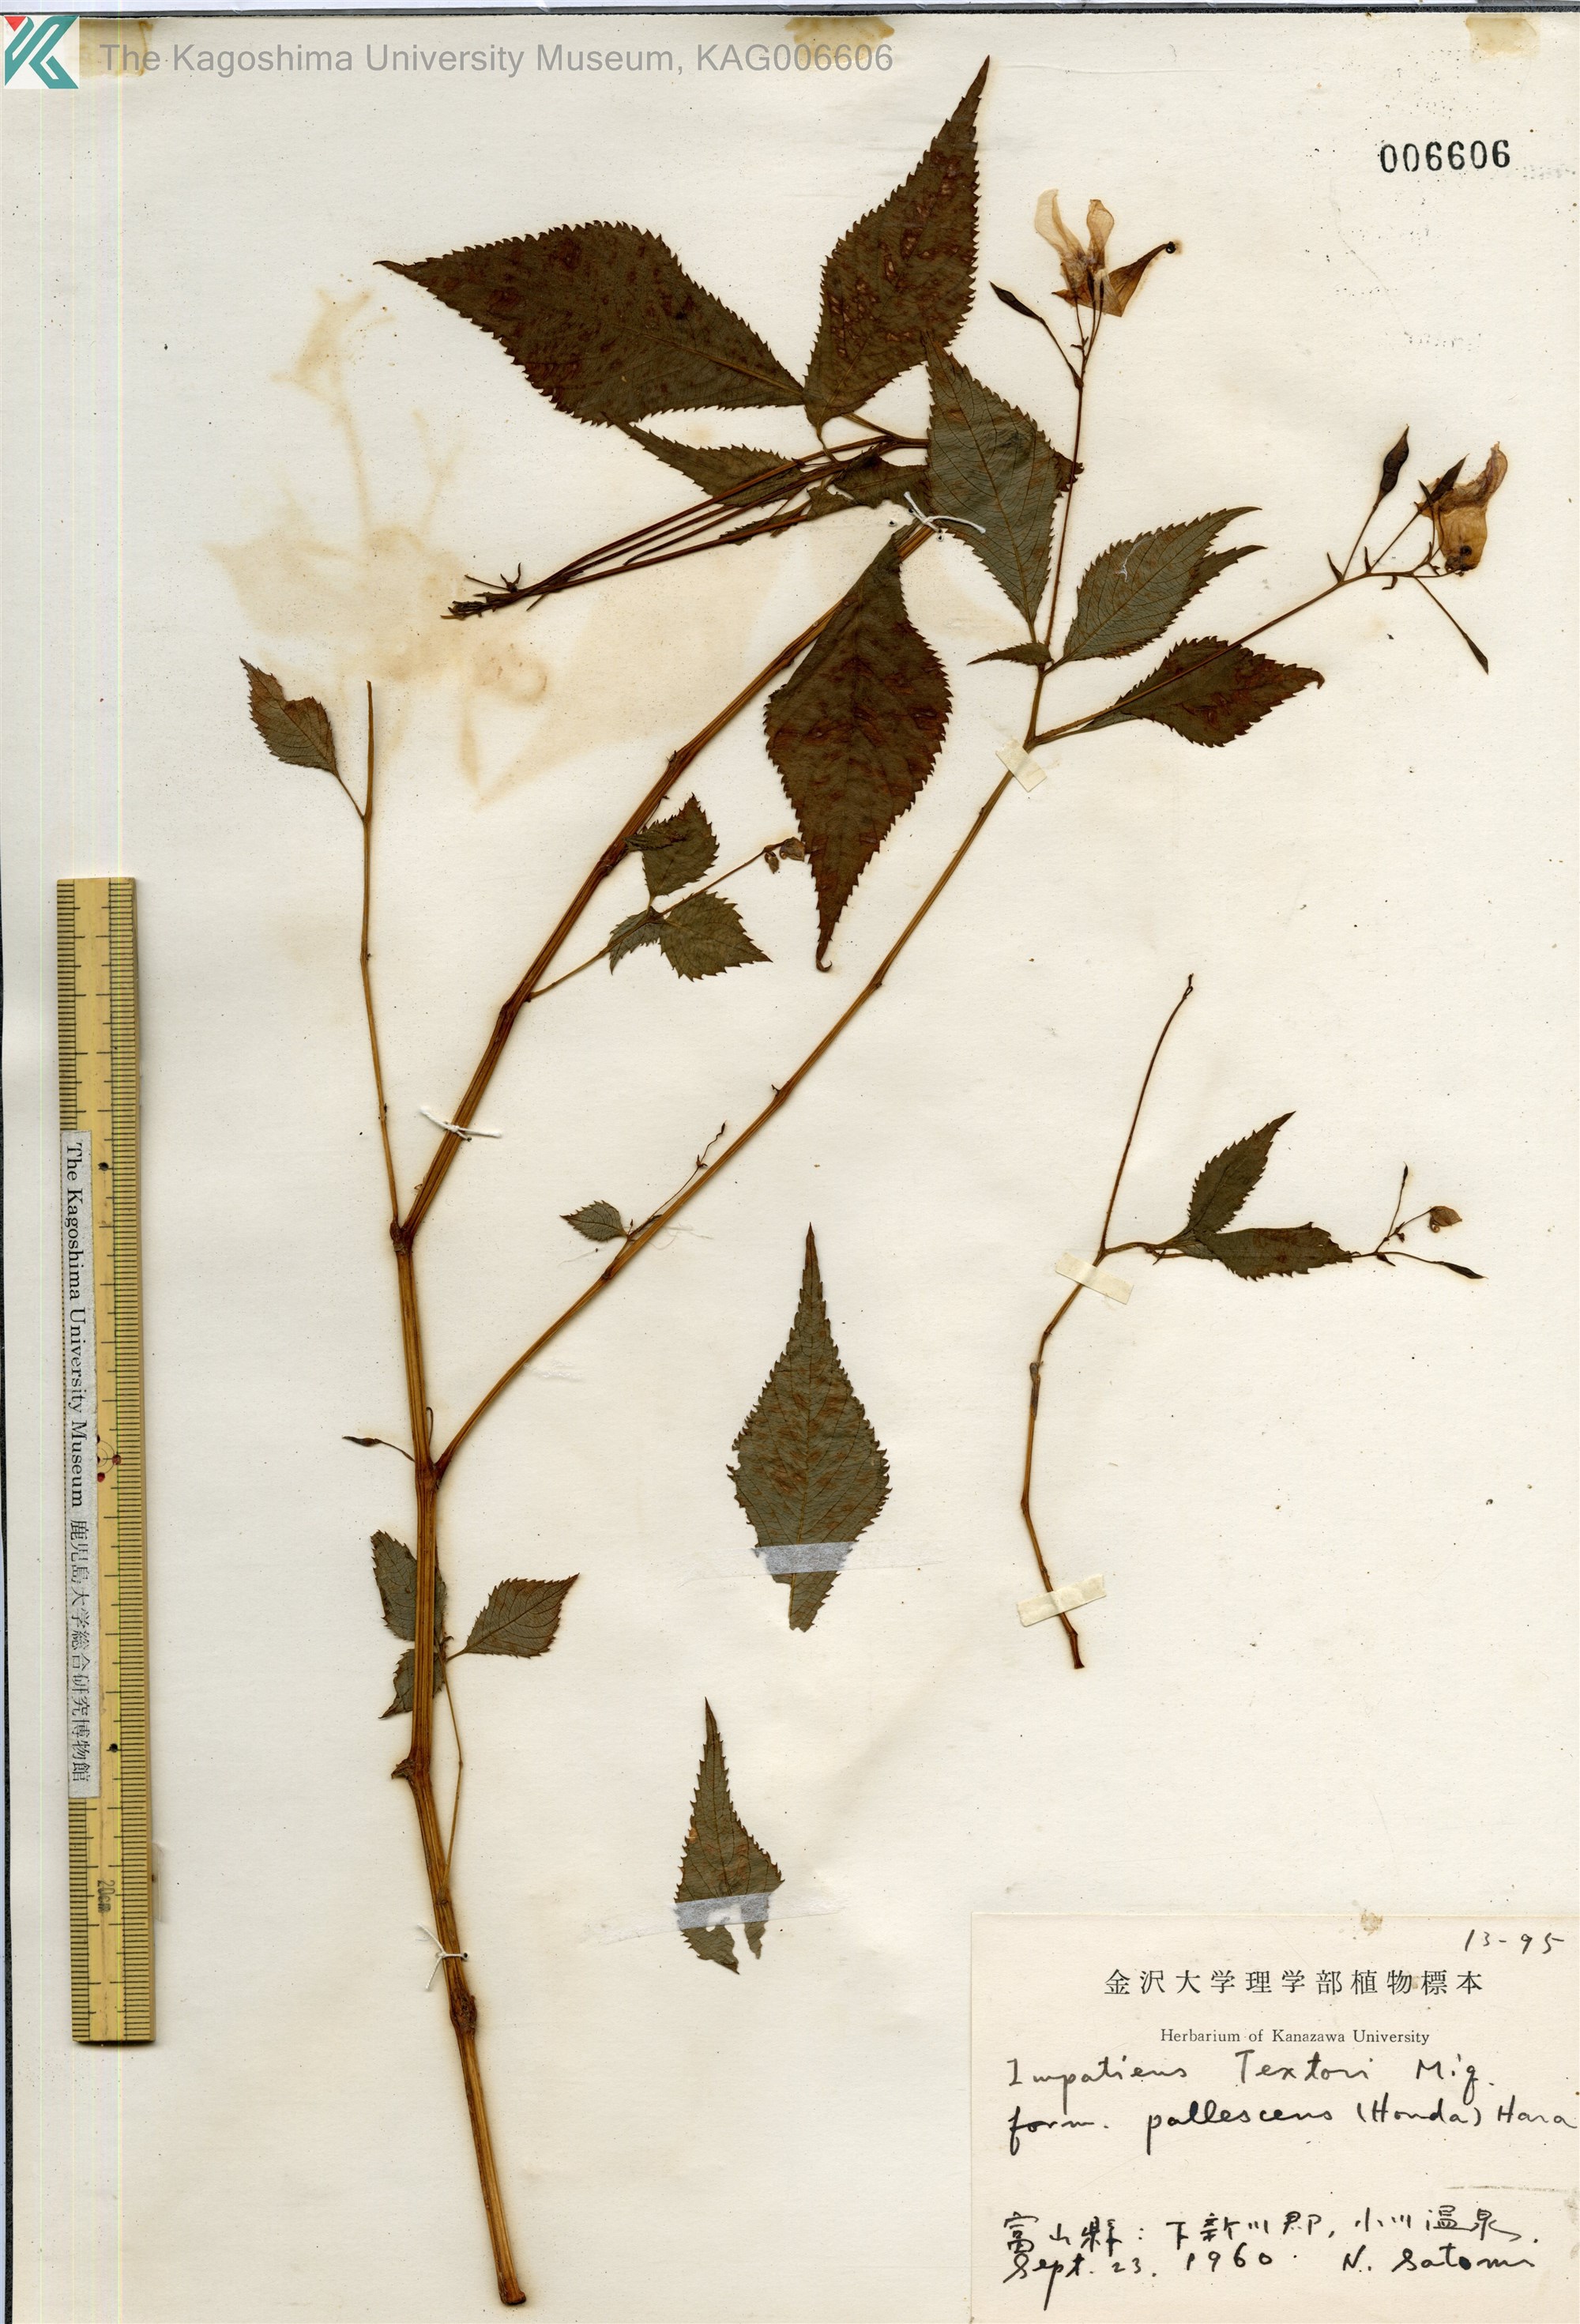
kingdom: Plantae
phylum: Tracheophyta
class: Magnoliopsida
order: Ericales
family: Balsaminaceae
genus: Impatiens
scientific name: Impatiens textorii
